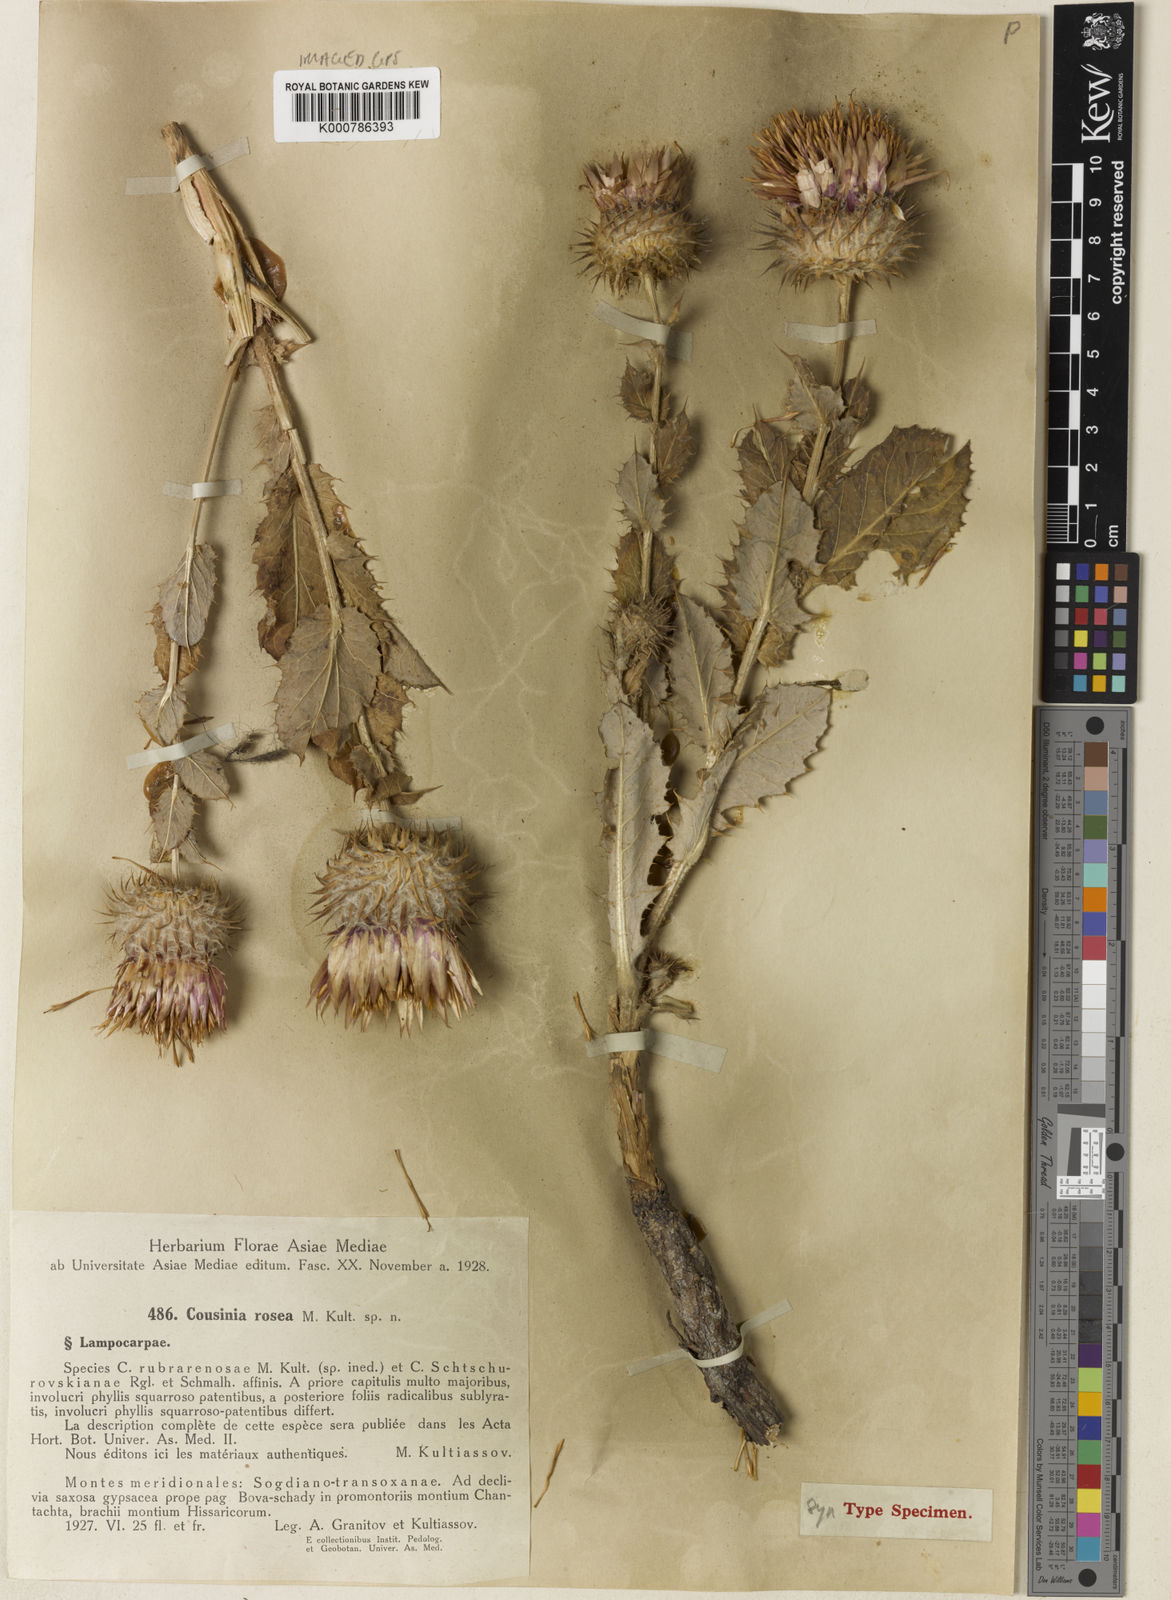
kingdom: Plantae
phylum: Tracheophyta
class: Magnoliopsida
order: Asterales
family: Asteraceae
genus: Cousinia
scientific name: Cousinia rosea
